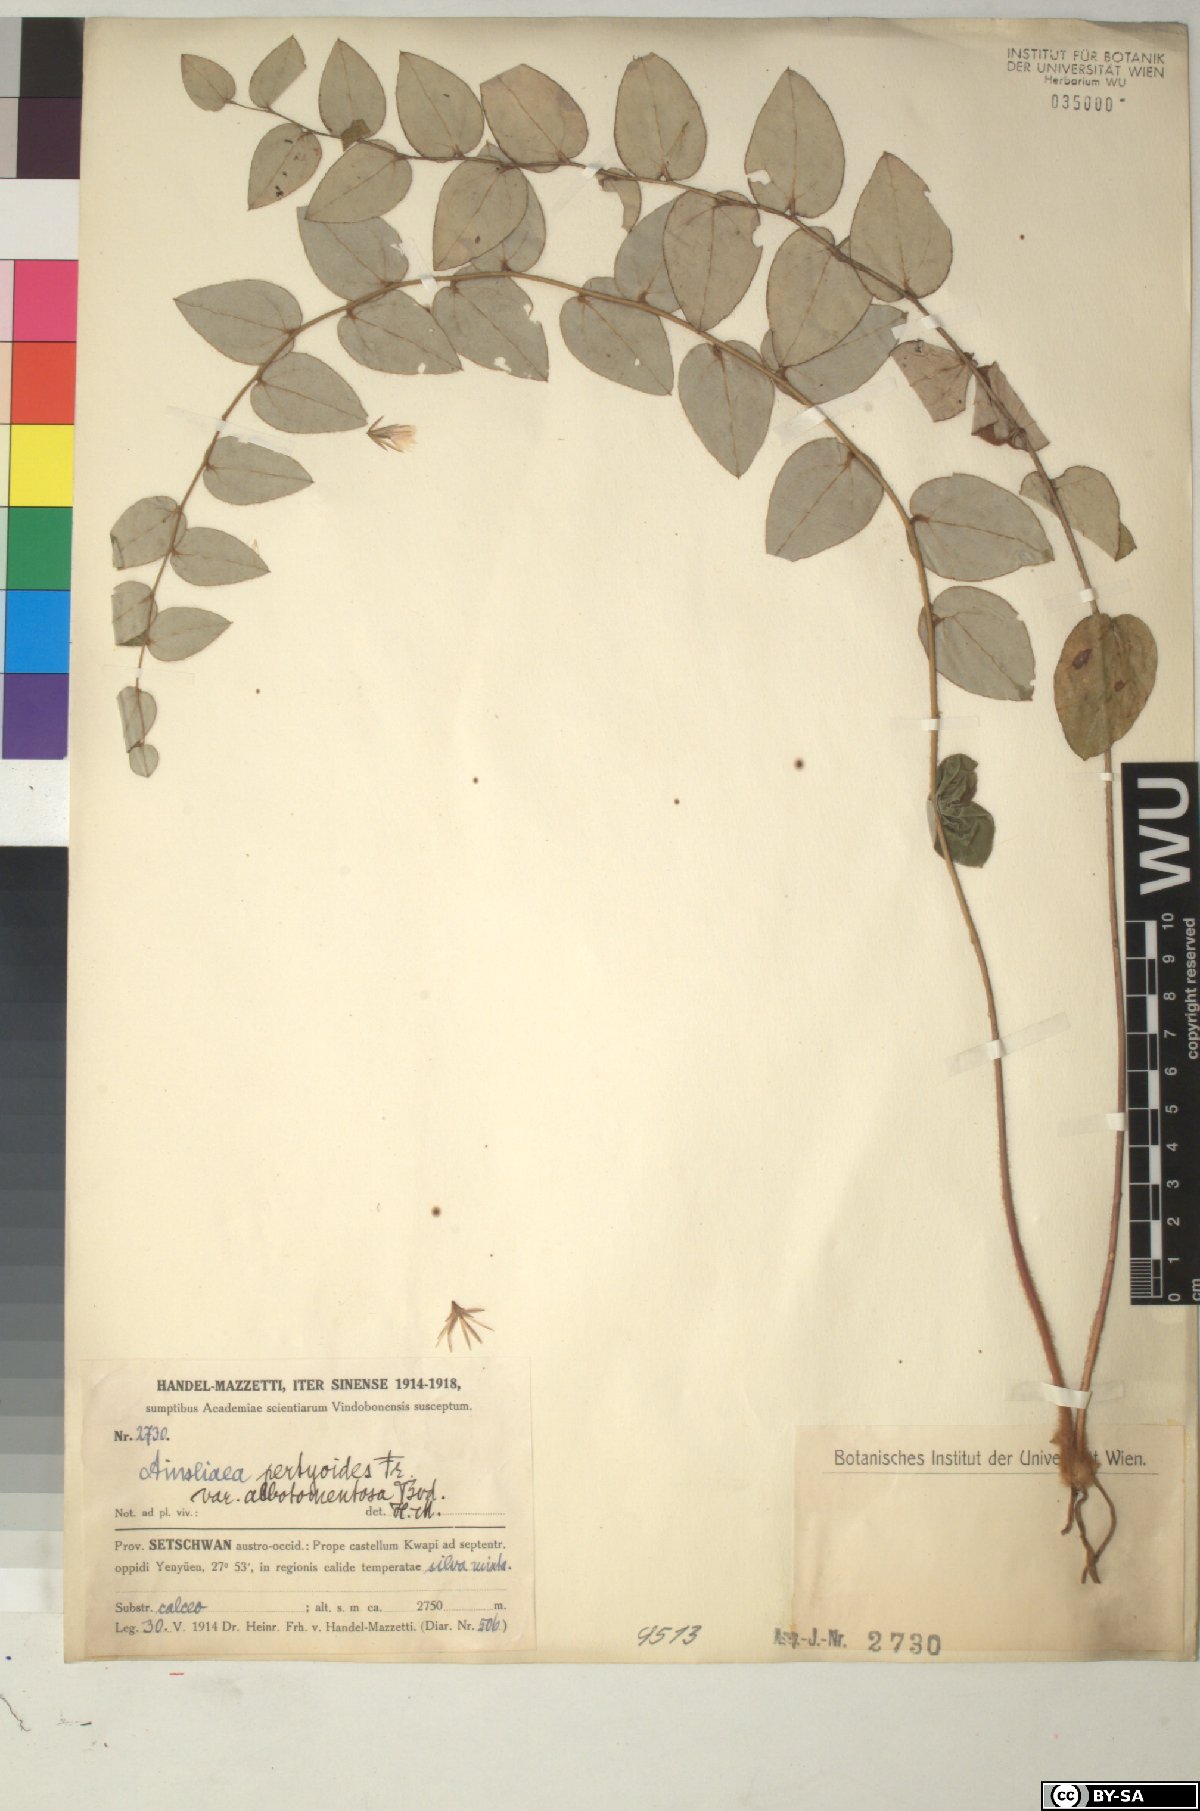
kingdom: Plantae
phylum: Tracheophyta
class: Magnoliopsida
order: Asterales
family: Asteraceae
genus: Ainsliaea
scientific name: Ainsliaea pertyoides
